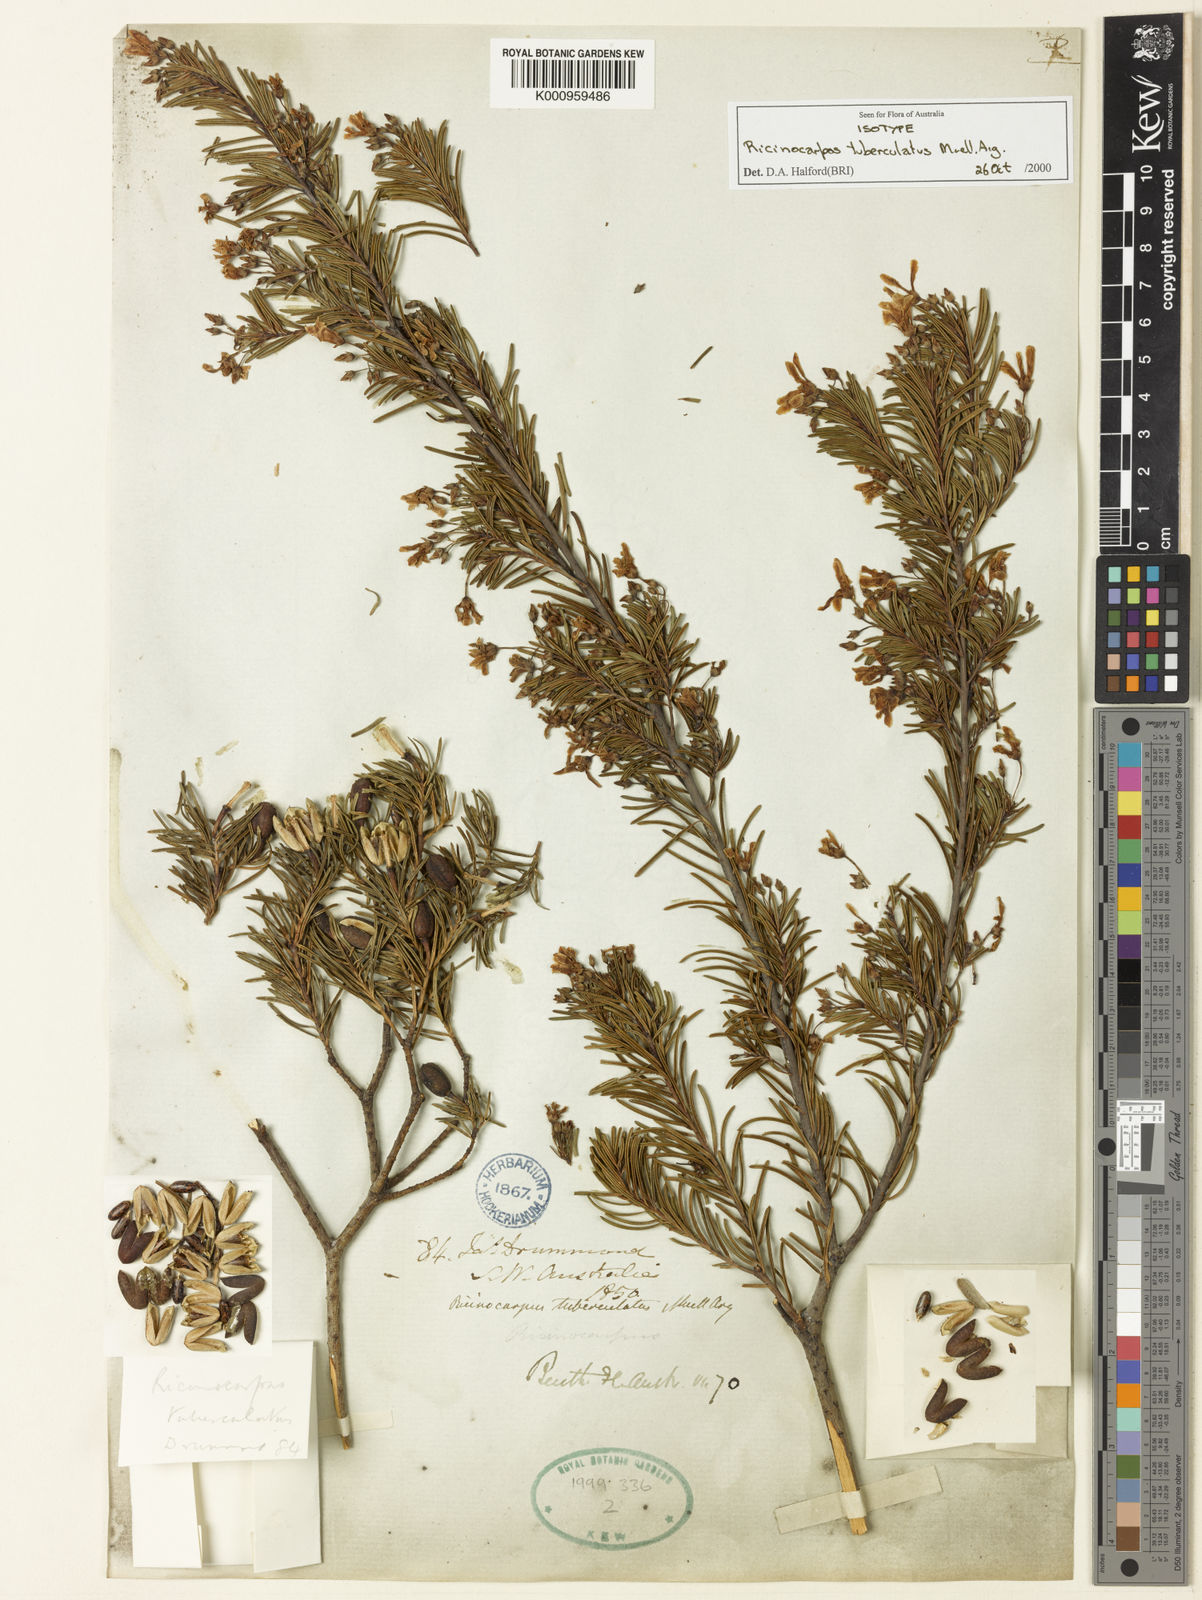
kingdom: Plantae
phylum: Tracheophyta
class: Magnoliopsida
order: Malpighiales
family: Euphorbiaceae
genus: Ricinocarpos
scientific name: Ricinocarpos
